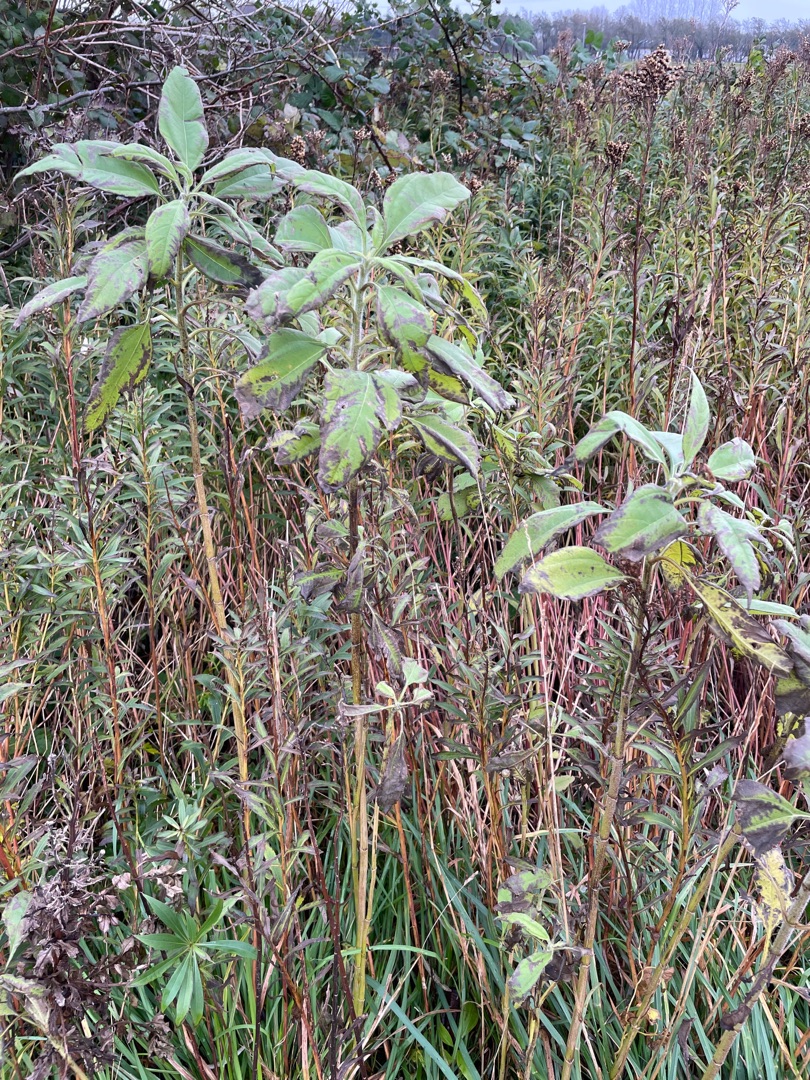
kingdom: Plantae
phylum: Tracheophyta
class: Magnoliopsida
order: Asterales
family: Asteraceae
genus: Helianthus
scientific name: Helianthus tuberosus
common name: Jordskok
